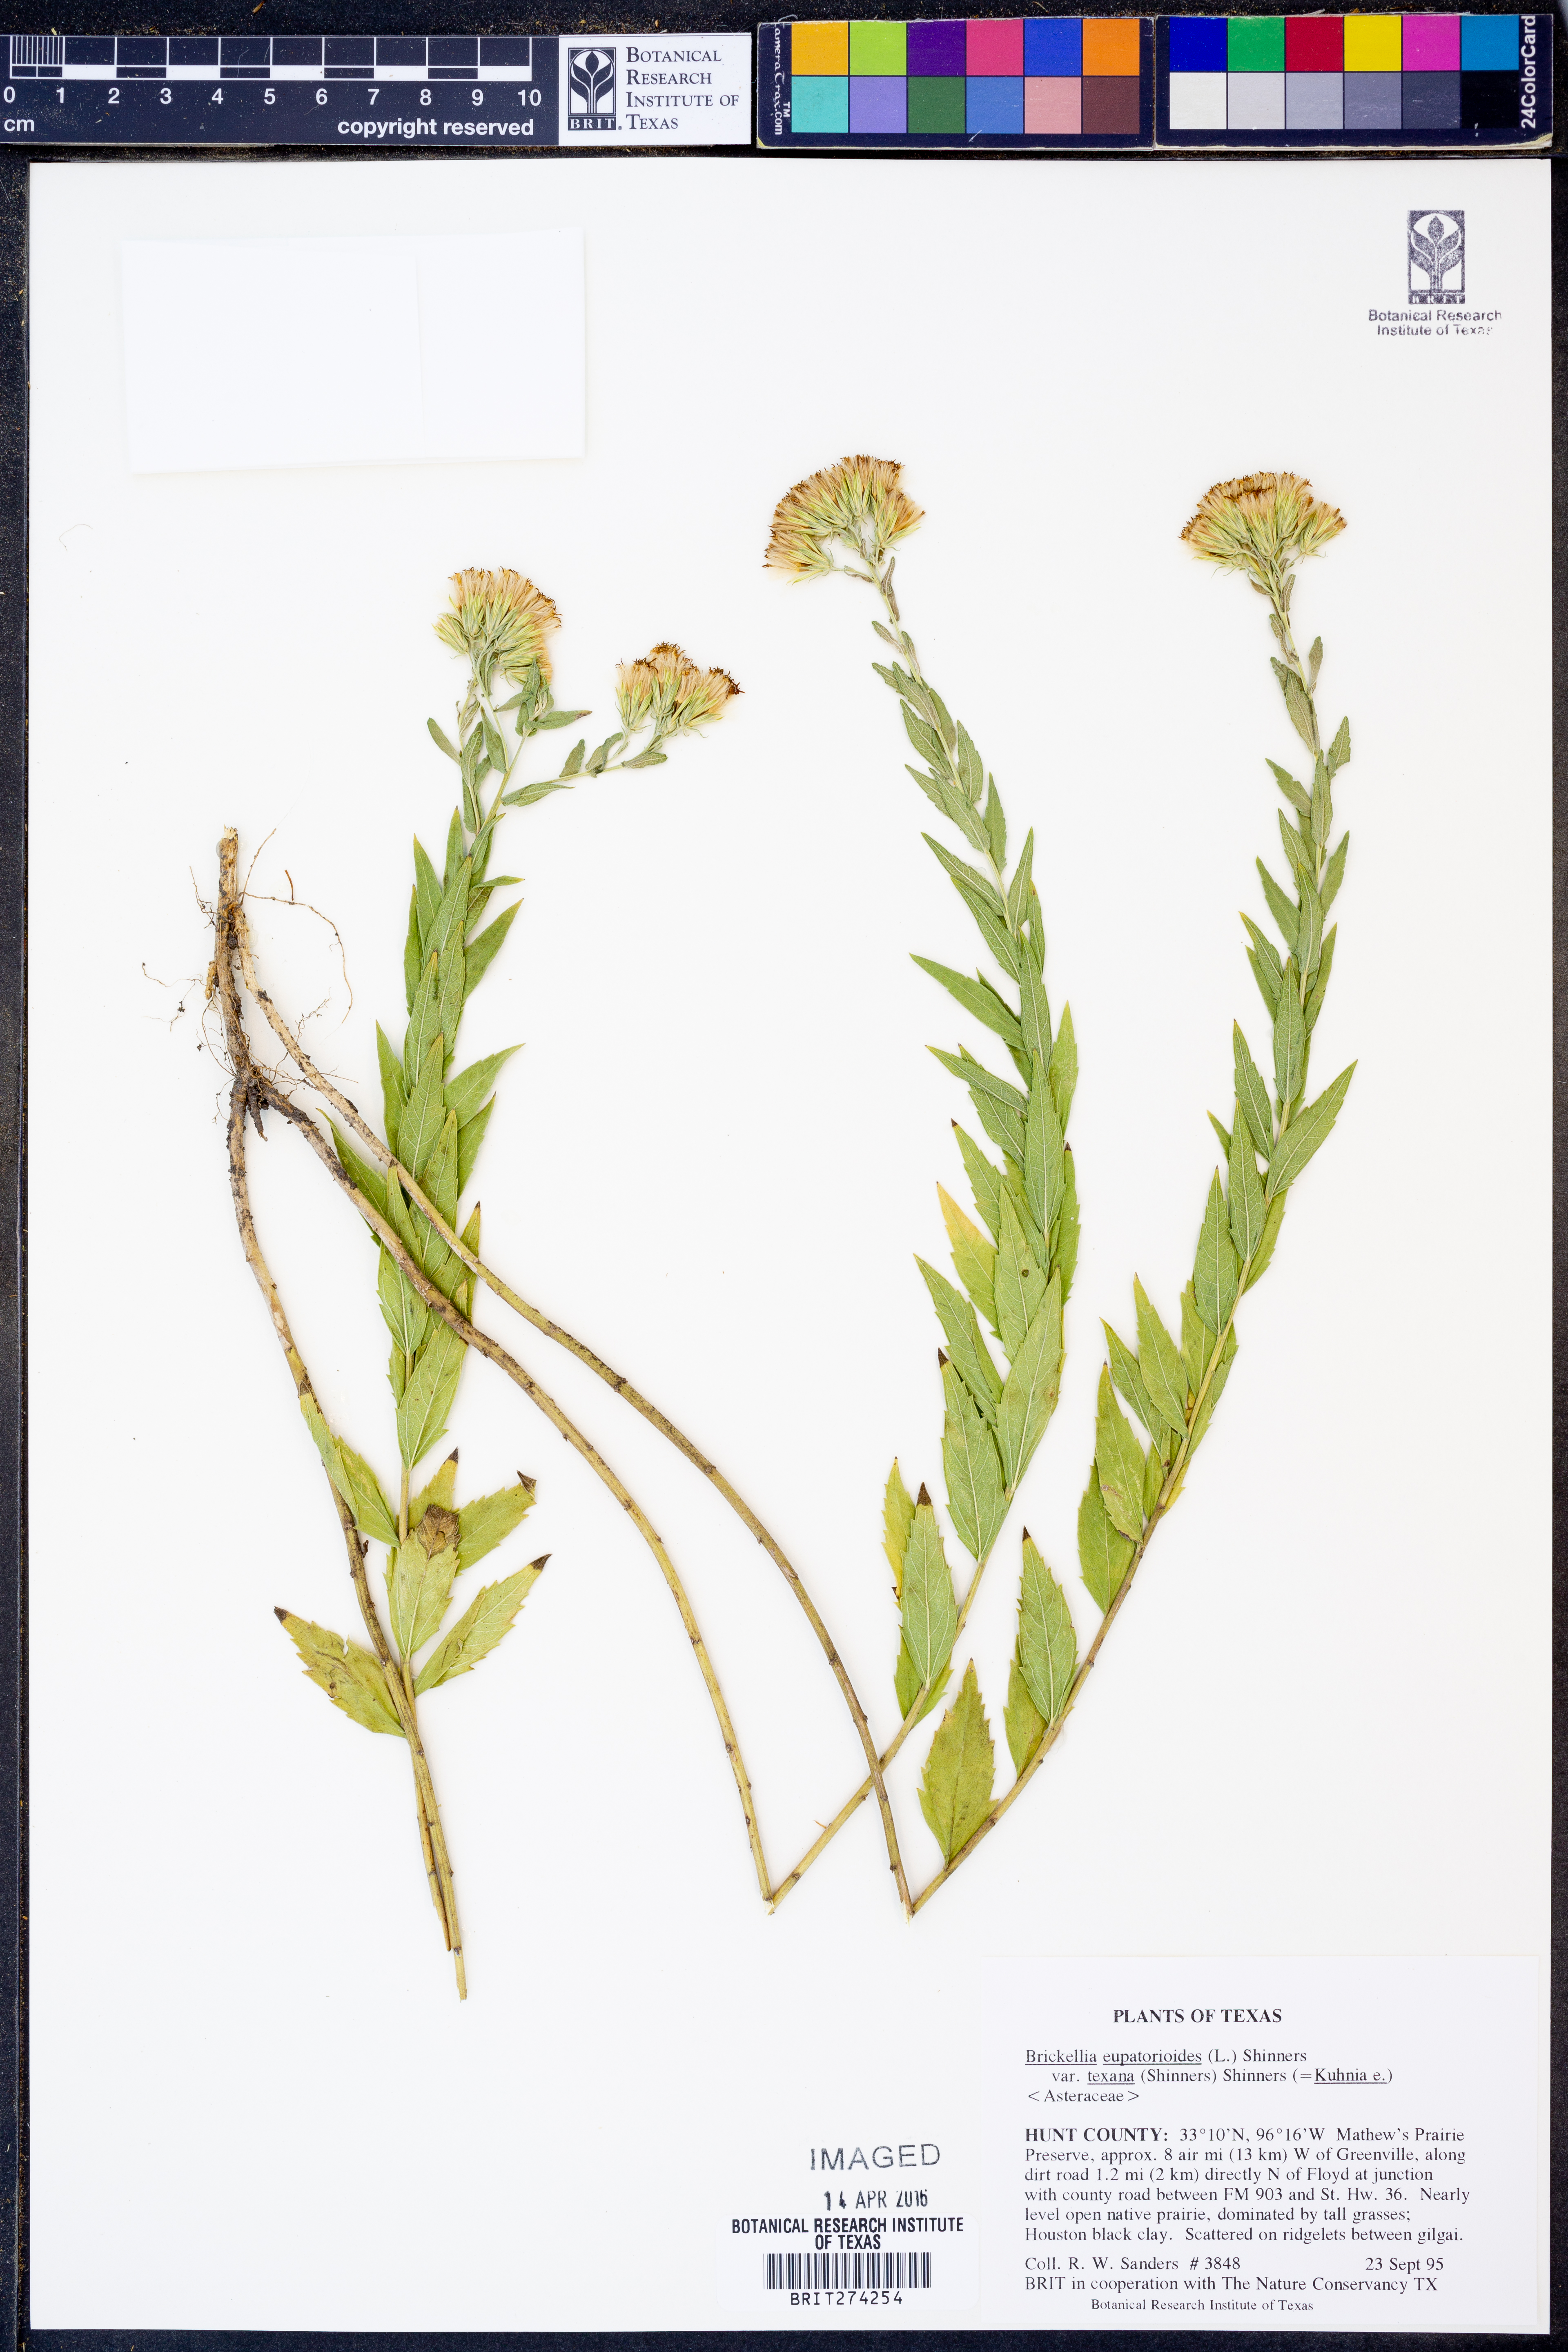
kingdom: Plantae
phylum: Tracheophyta
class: Magnoliopsida
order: Asterales
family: Asteraceae
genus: Brickellia
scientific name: Brickellia macranthra
